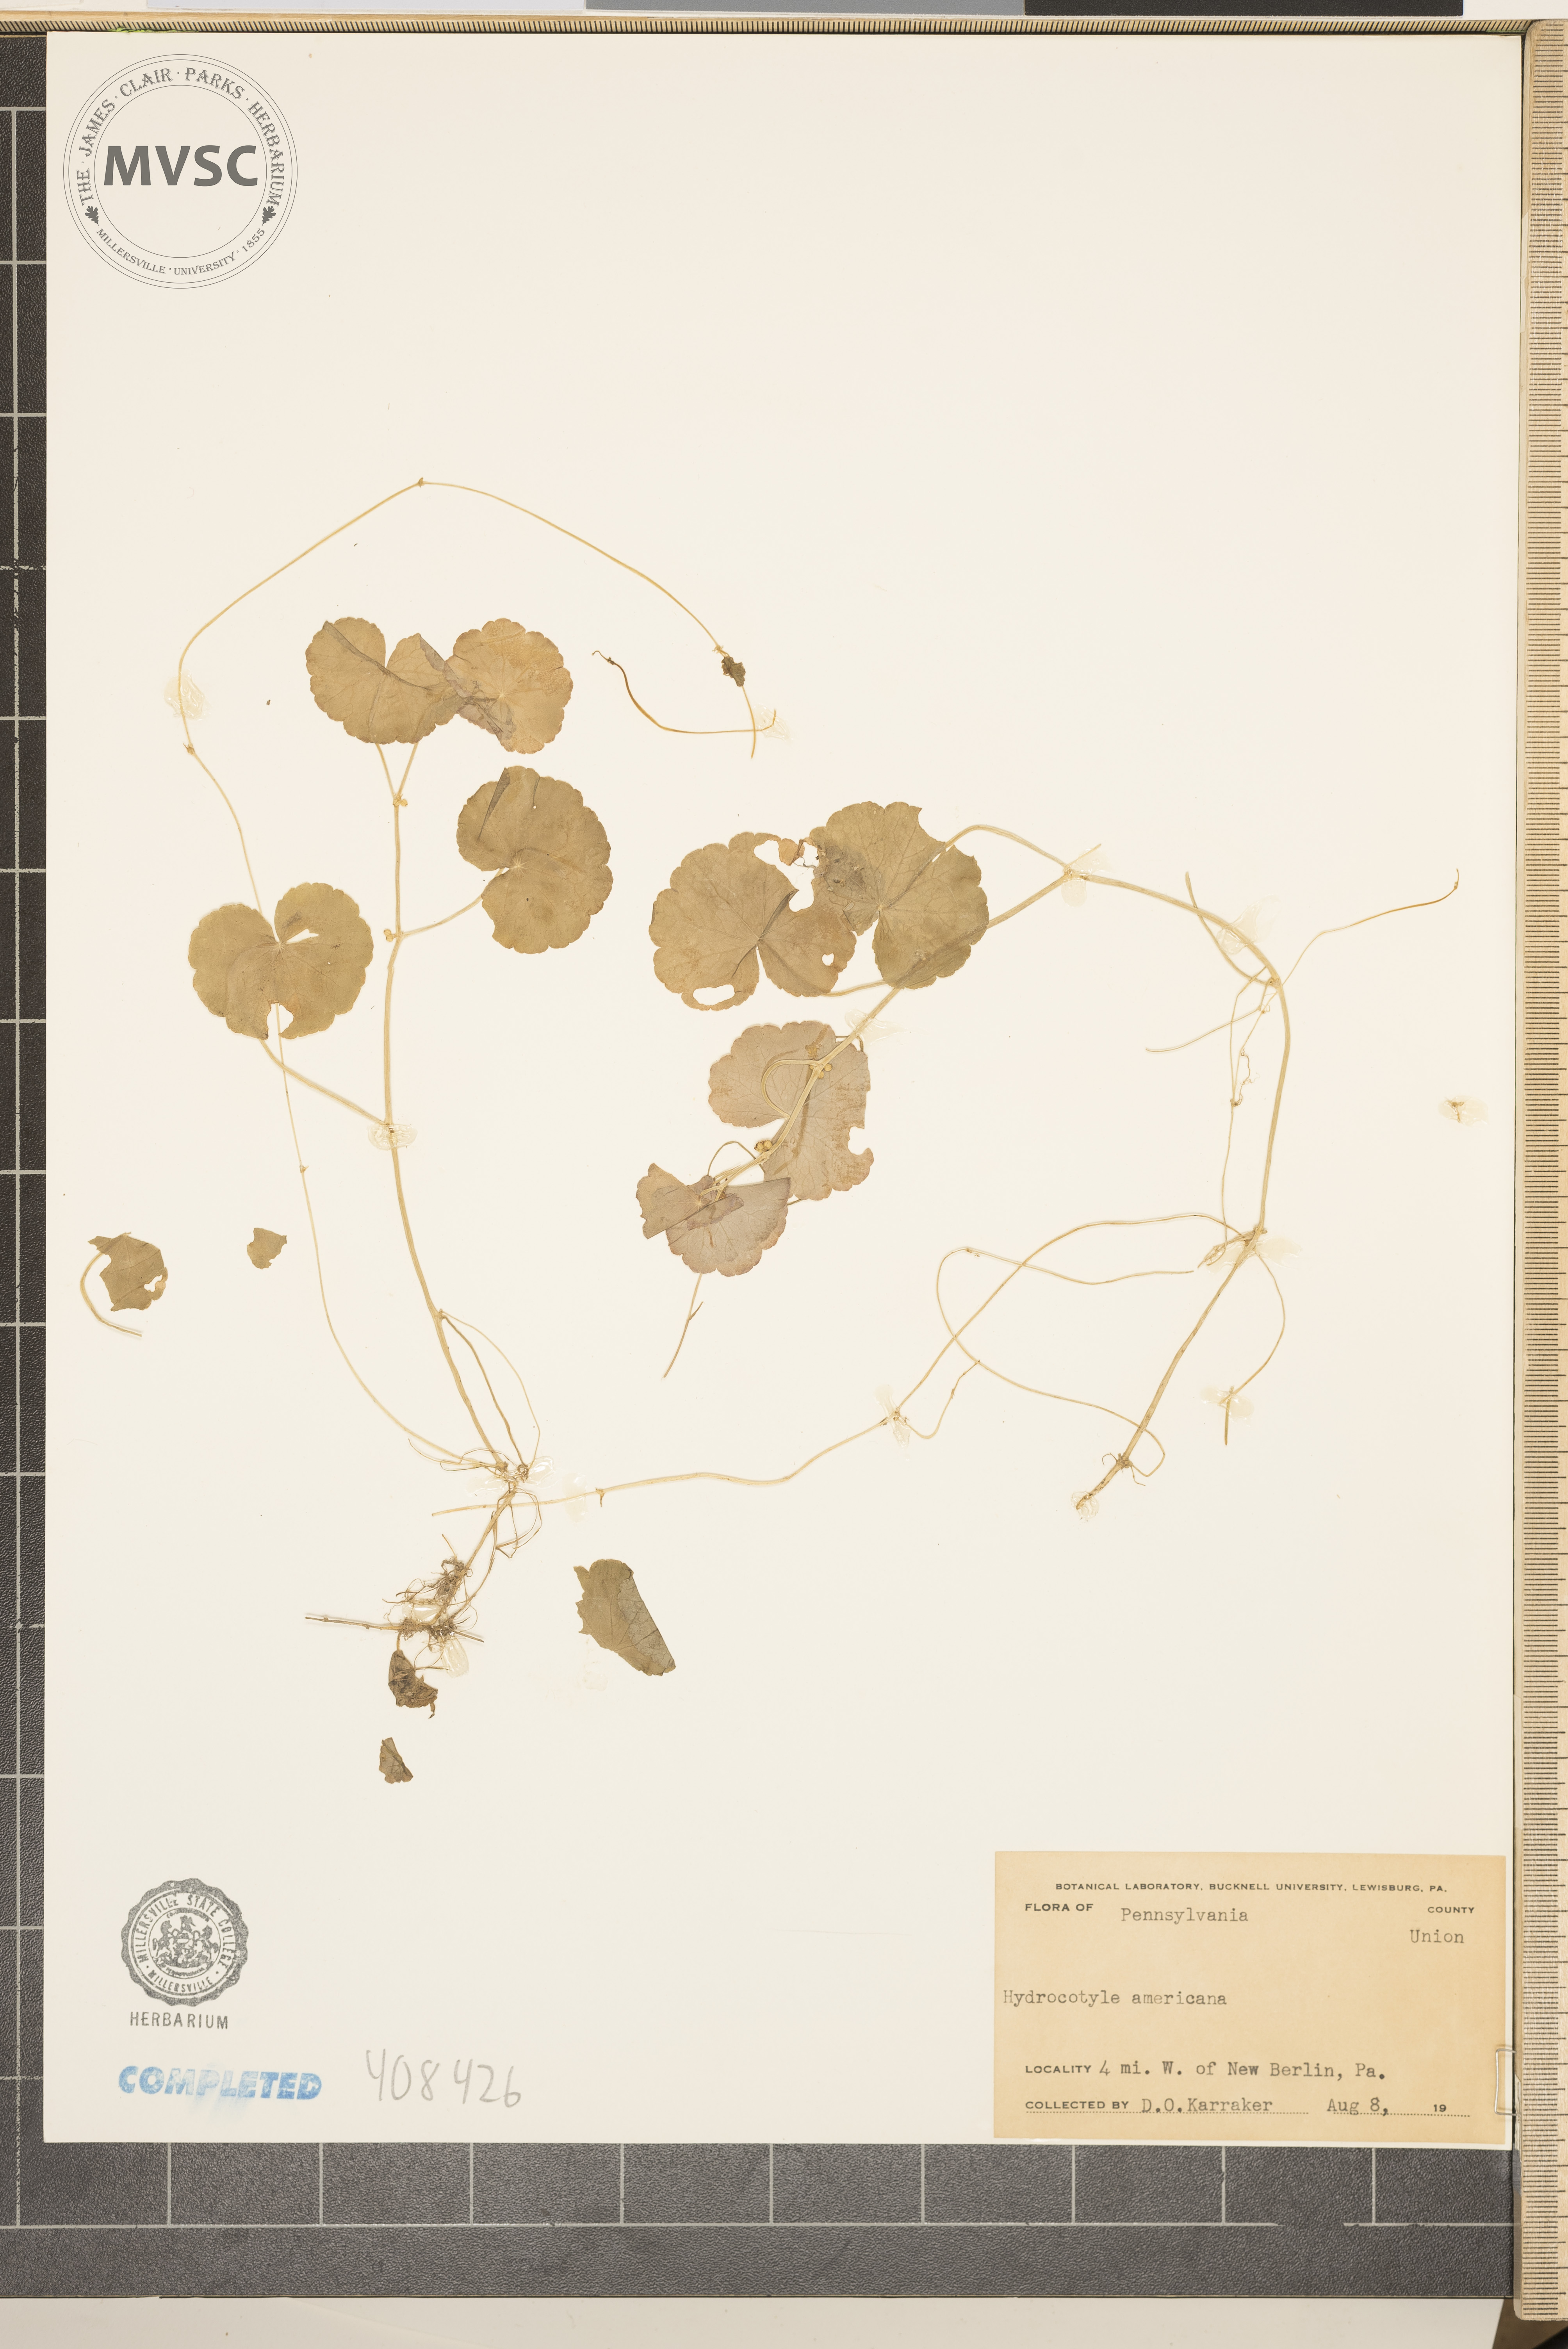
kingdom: Plantae
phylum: Tracheophyta
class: Magnoliopsida
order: Apiales
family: Araliaceae
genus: Hydrocotyle
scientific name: Hydrocotyle americana
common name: American water-pennywort
